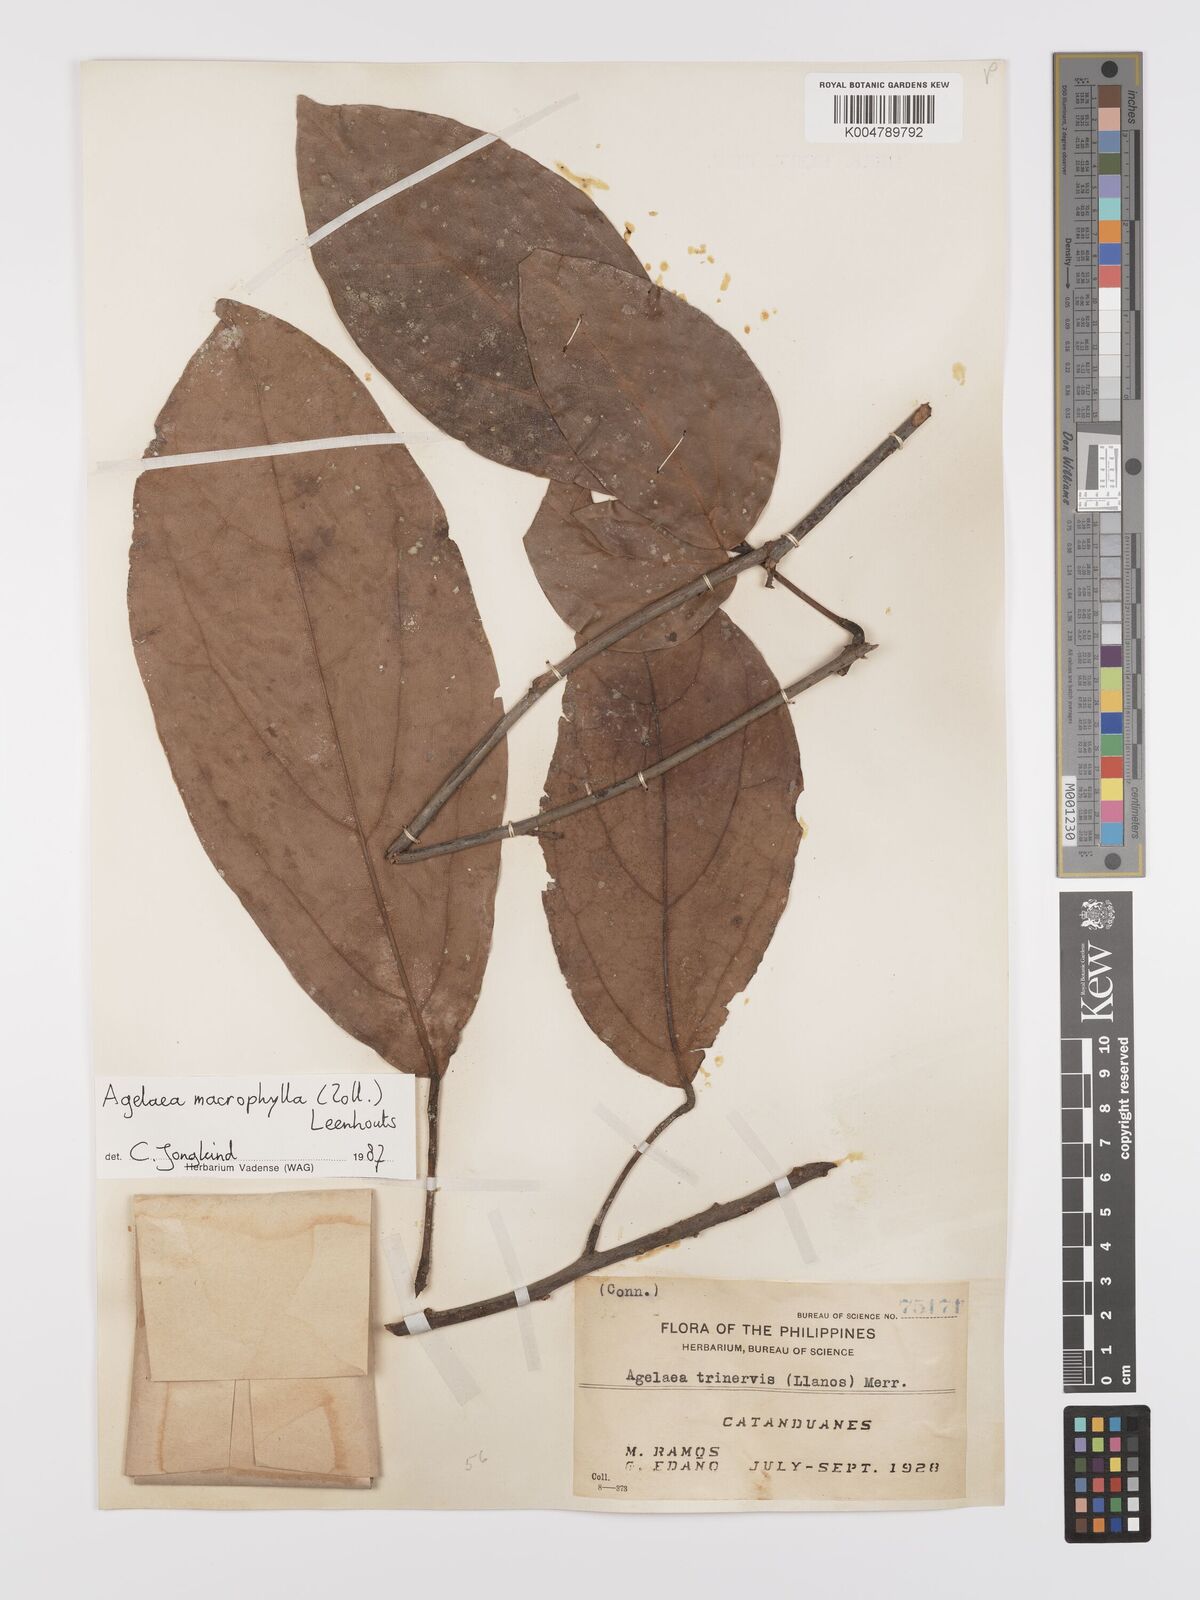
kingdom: Plantae
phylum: Tracheophyta
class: Magnoliopsida
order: Oxalidales
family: Connaraceae
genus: Agelaea
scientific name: Agelaea trinervis
